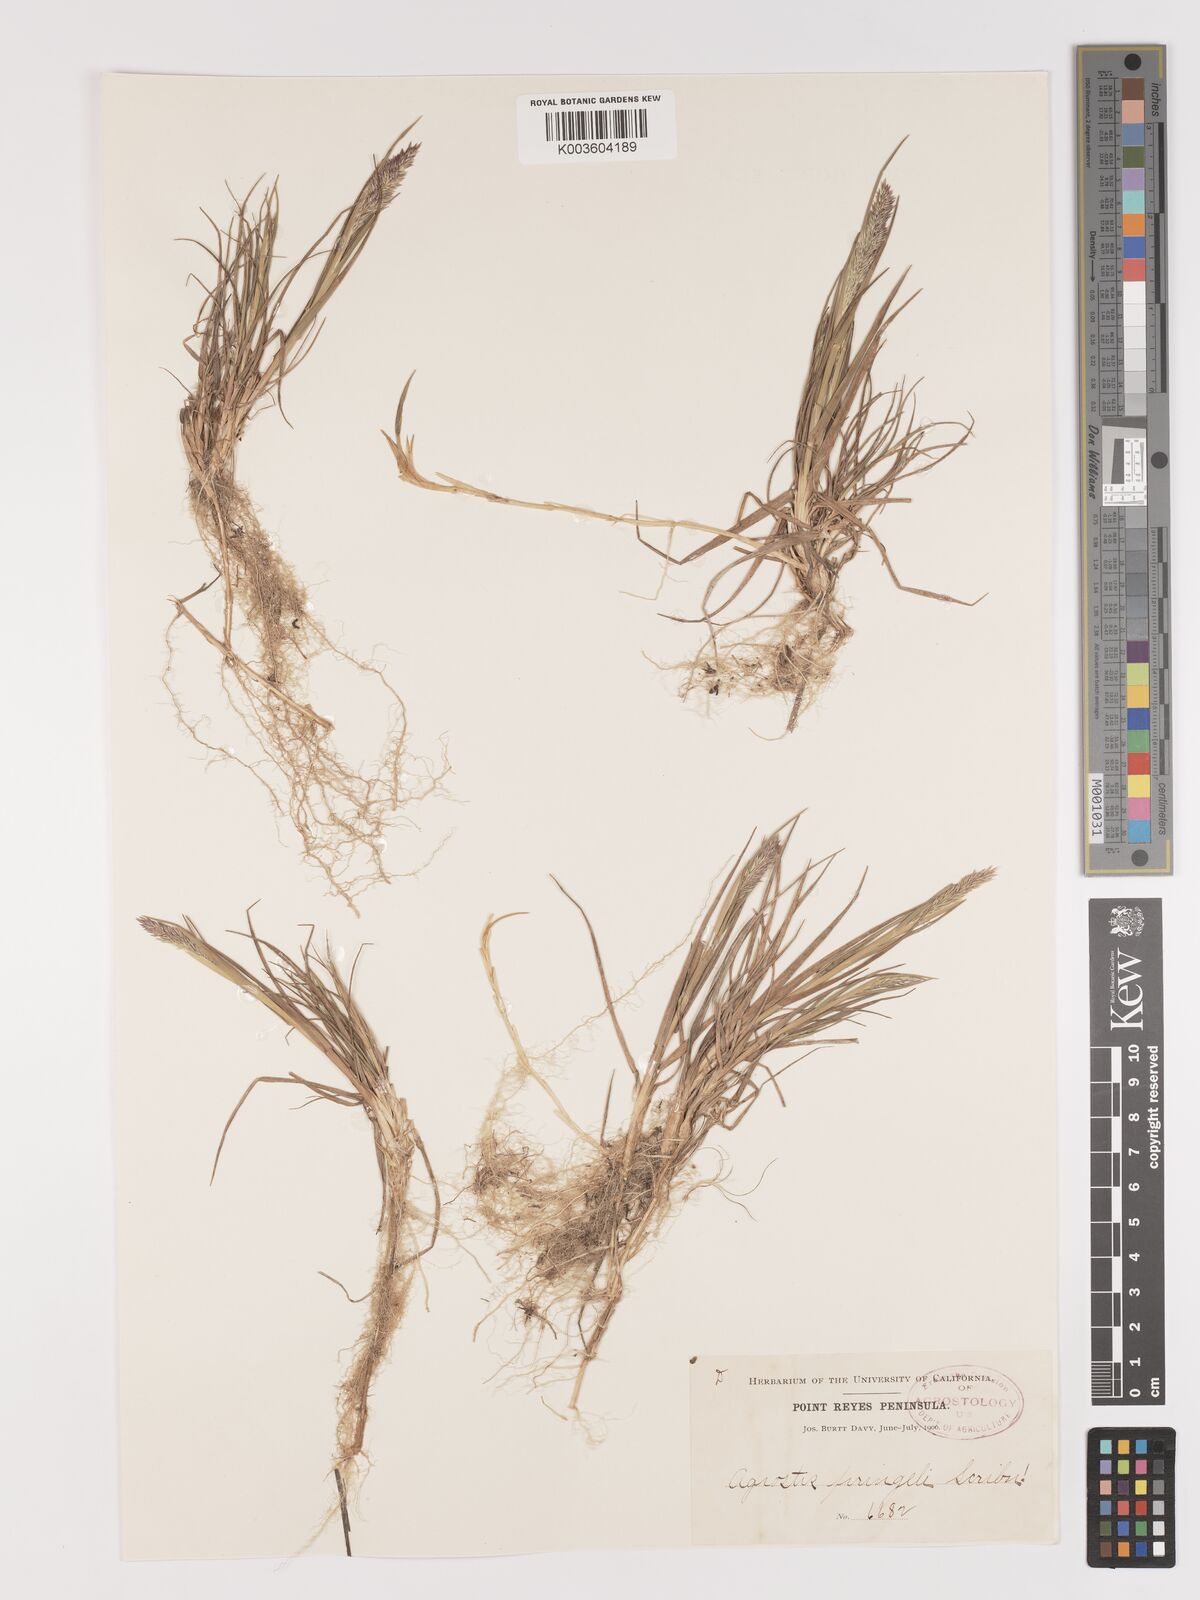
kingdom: Plantae
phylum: Tracheophyta
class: Liliopsida
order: Poales
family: Poaceae
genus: Agrostis
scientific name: Agrostis hallii
